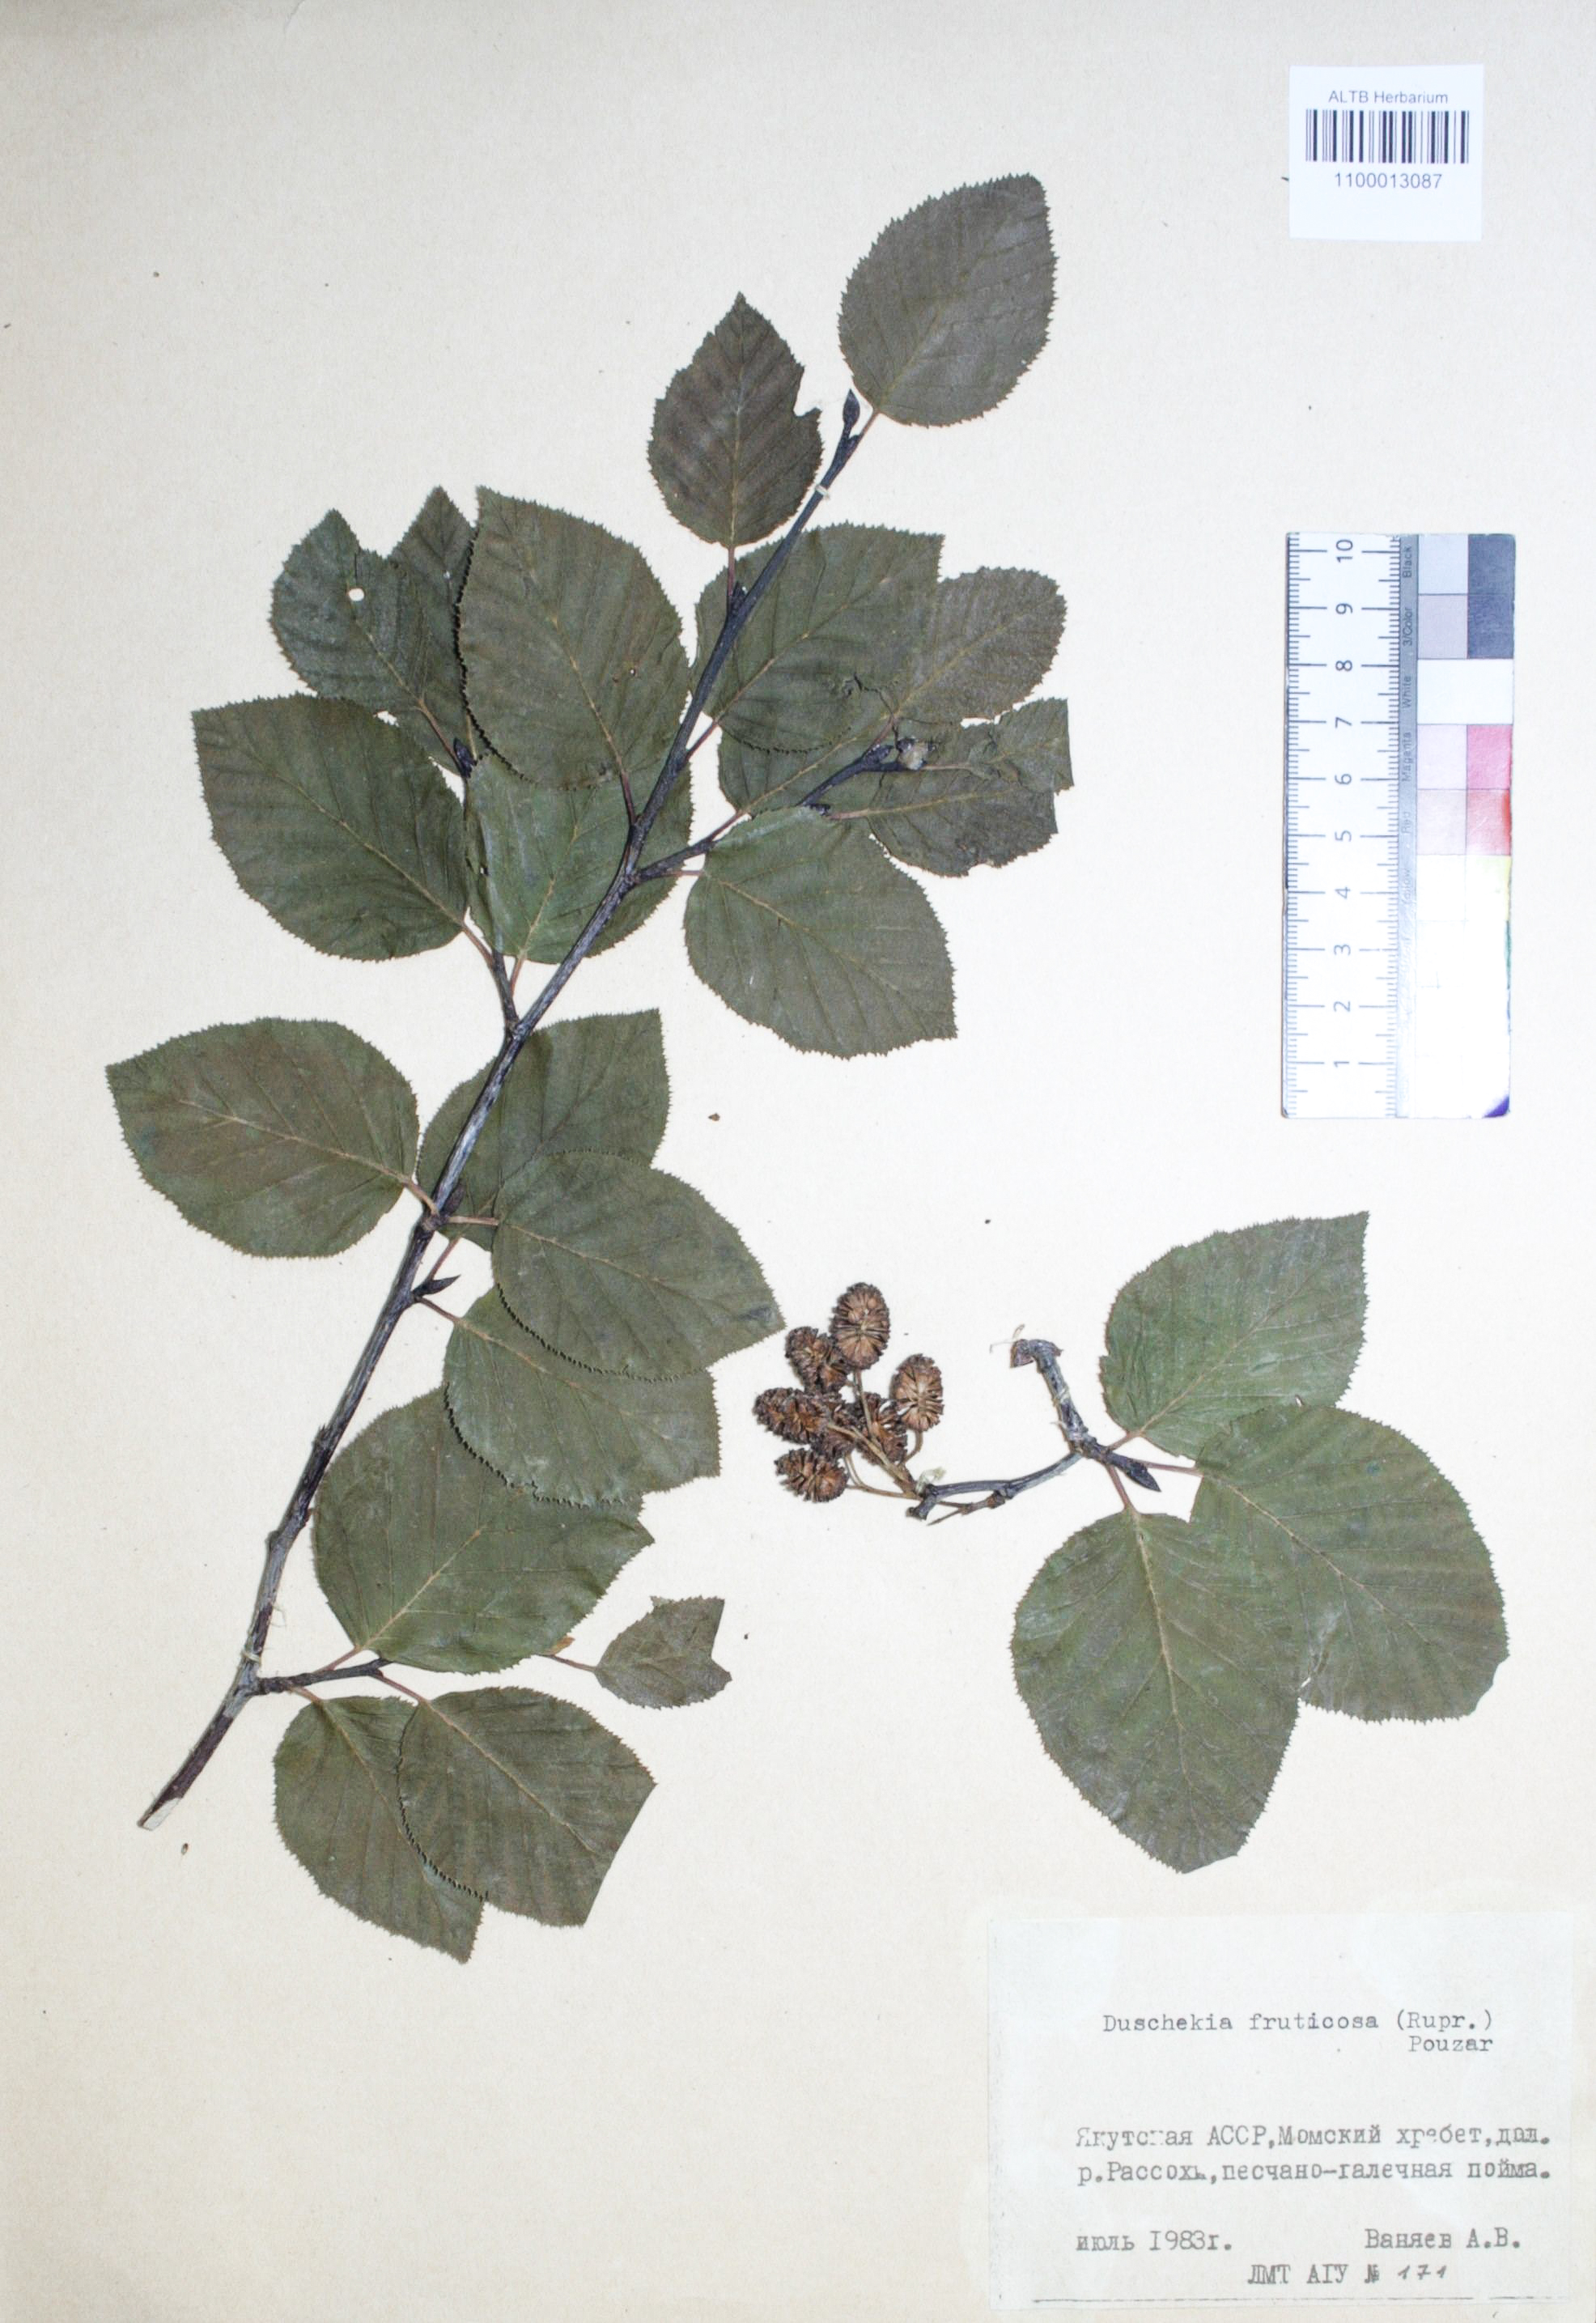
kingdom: Plantae
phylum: Tracheophyta
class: Magnoliopsida
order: Fagales
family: Betulaceae
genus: Alnus
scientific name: Alnus alnobetula
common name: Green alder
